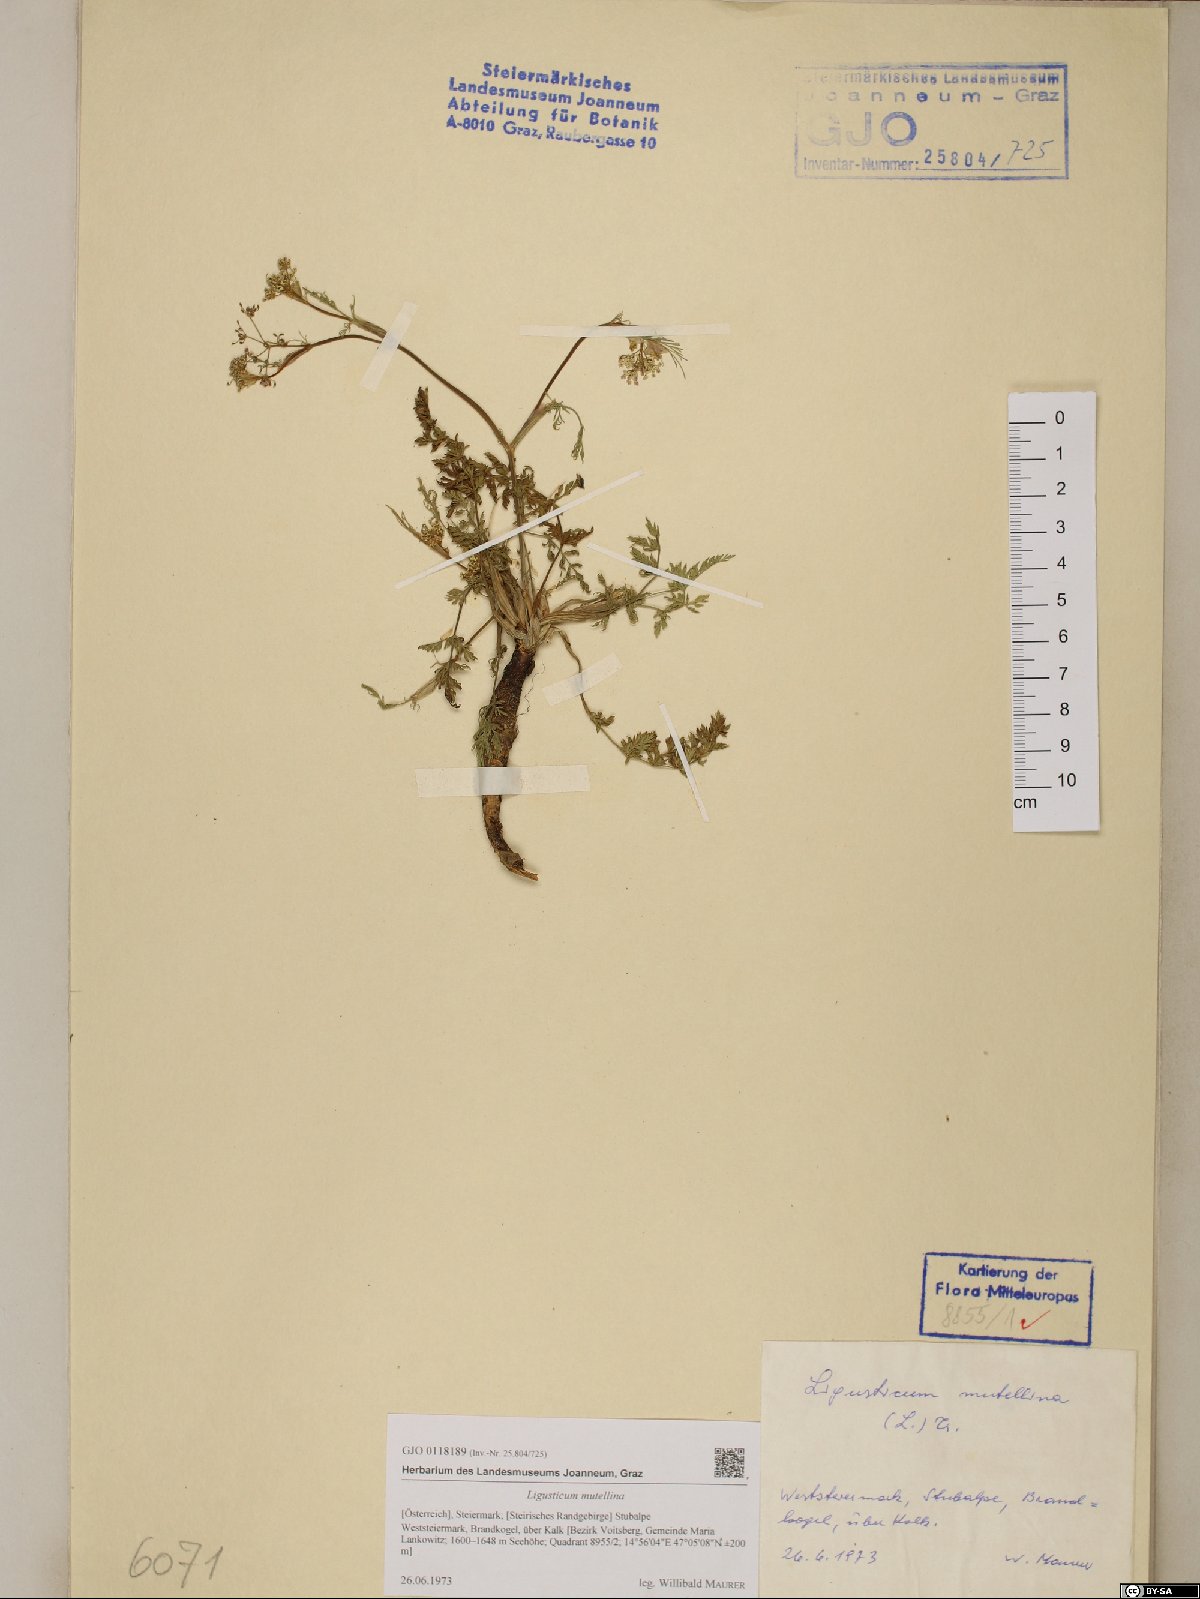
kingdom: Plantae
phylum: Tracheophyta
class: Magnoliopsida
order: Apiales
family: Apiaceae
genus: Mutellina
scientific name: Mutellina adonidifolia
